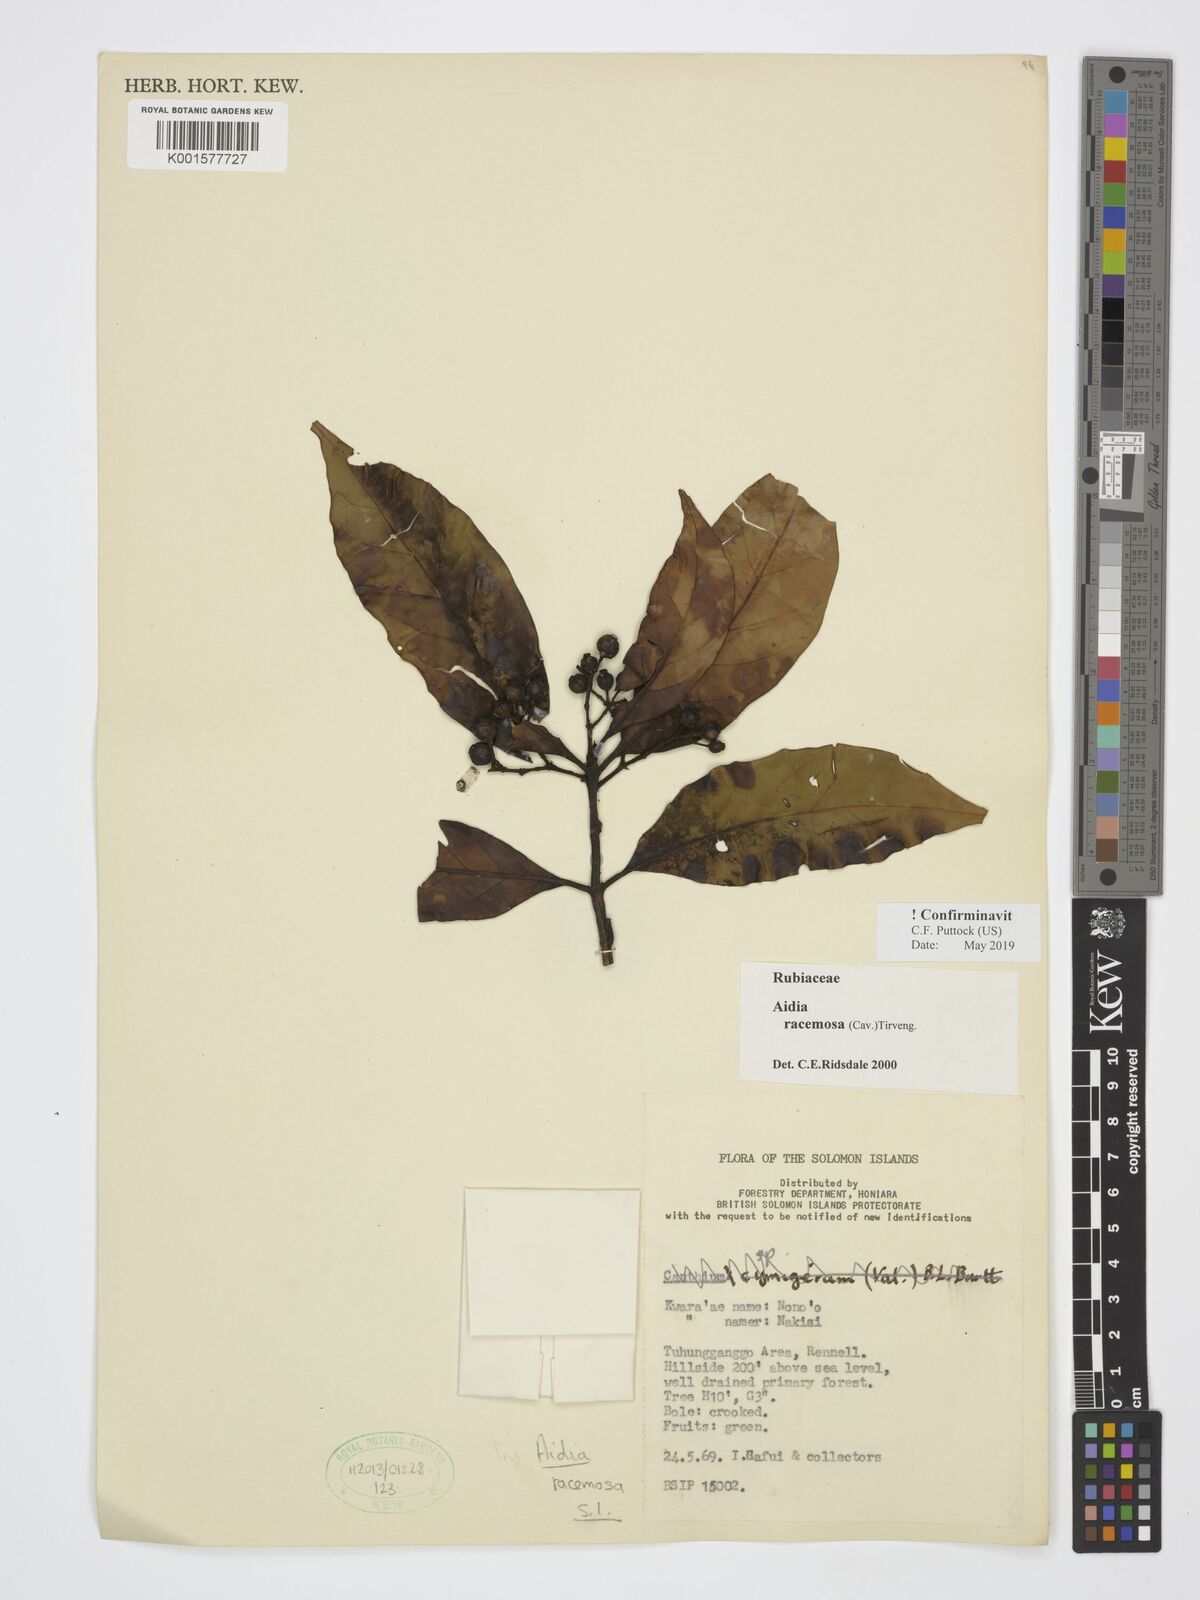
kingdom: Plantae
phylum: Tracheophyta
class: Magnoliopsida
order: Gentianales
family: Rubiaceae
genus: Aidia
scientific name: Aidia racemosa
